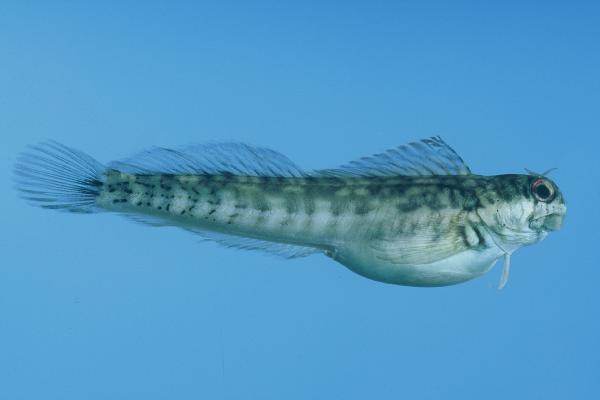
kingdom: Animalia
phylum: Chordata
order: Perciformes
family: Blenniidae
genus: Istiblennius
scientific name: Istiblennius steindachneri
